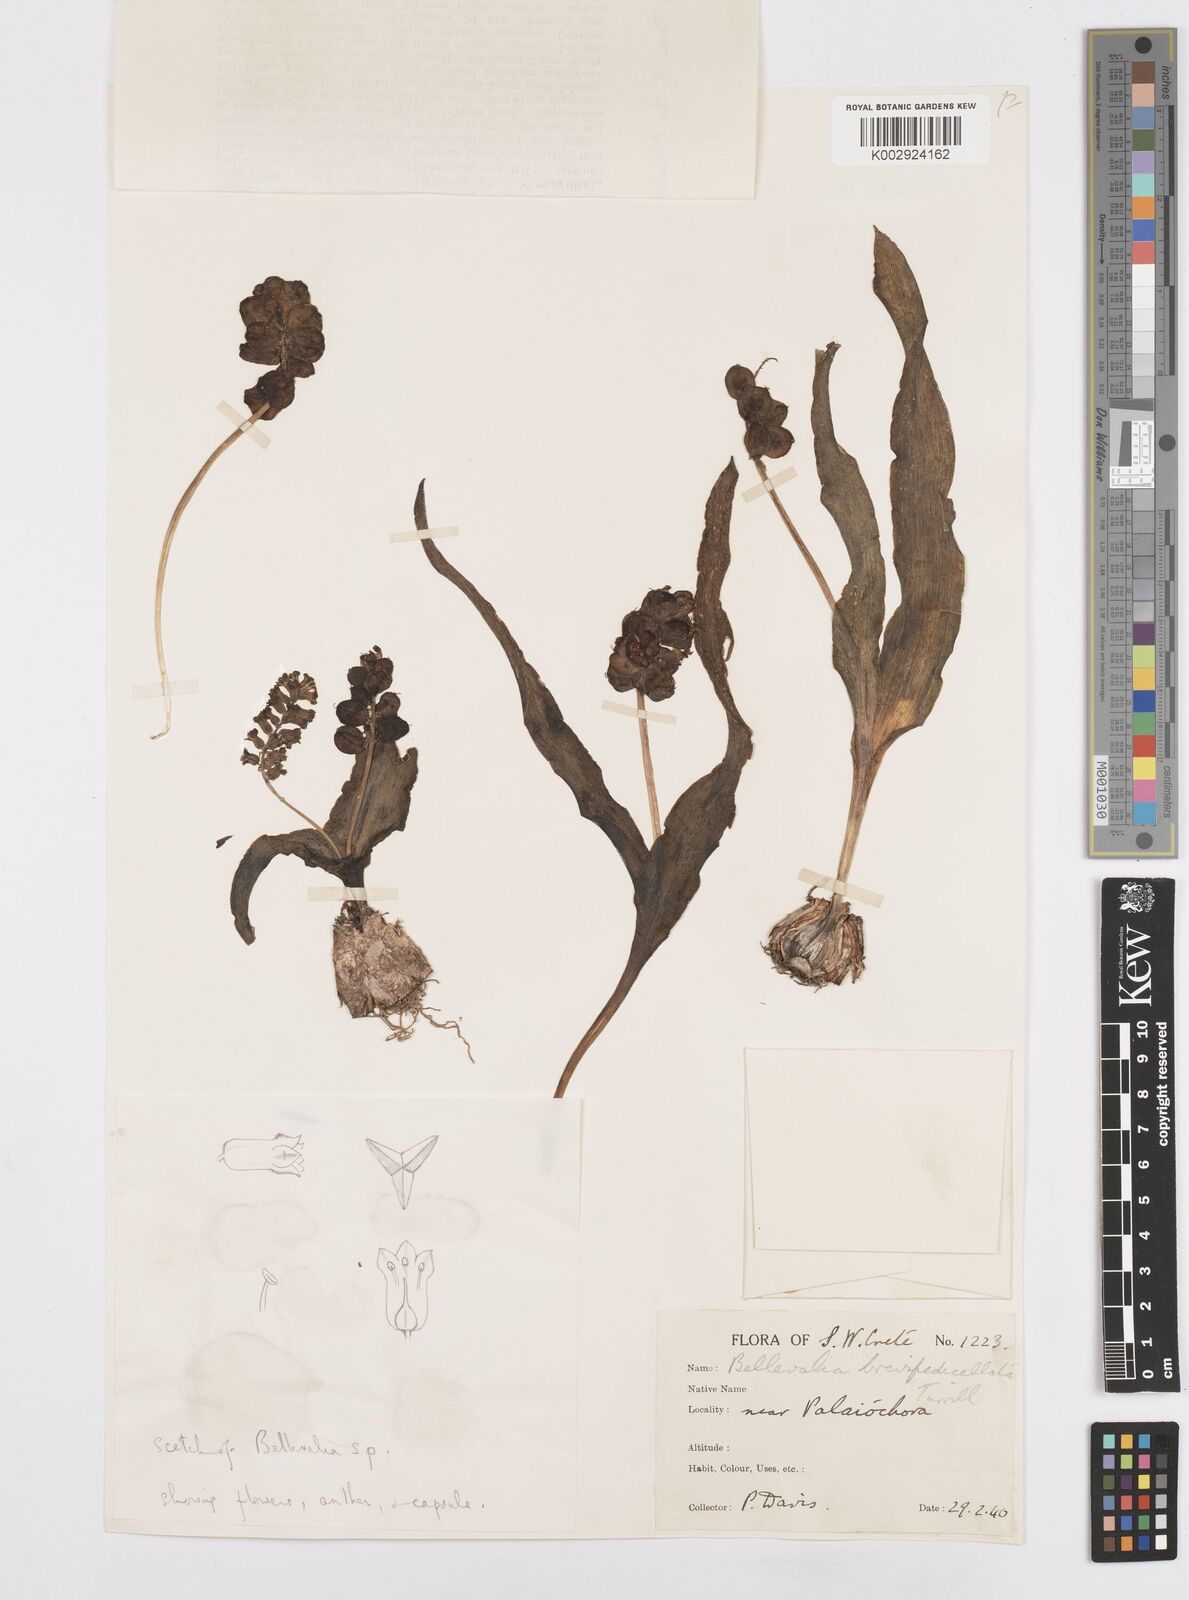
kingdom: Plantae
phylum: Tracheophyta
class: Liliopsida
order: Asparagales
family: Asparagaceae
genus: Bellevalia
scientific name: Bellevalia brevipedicellata
